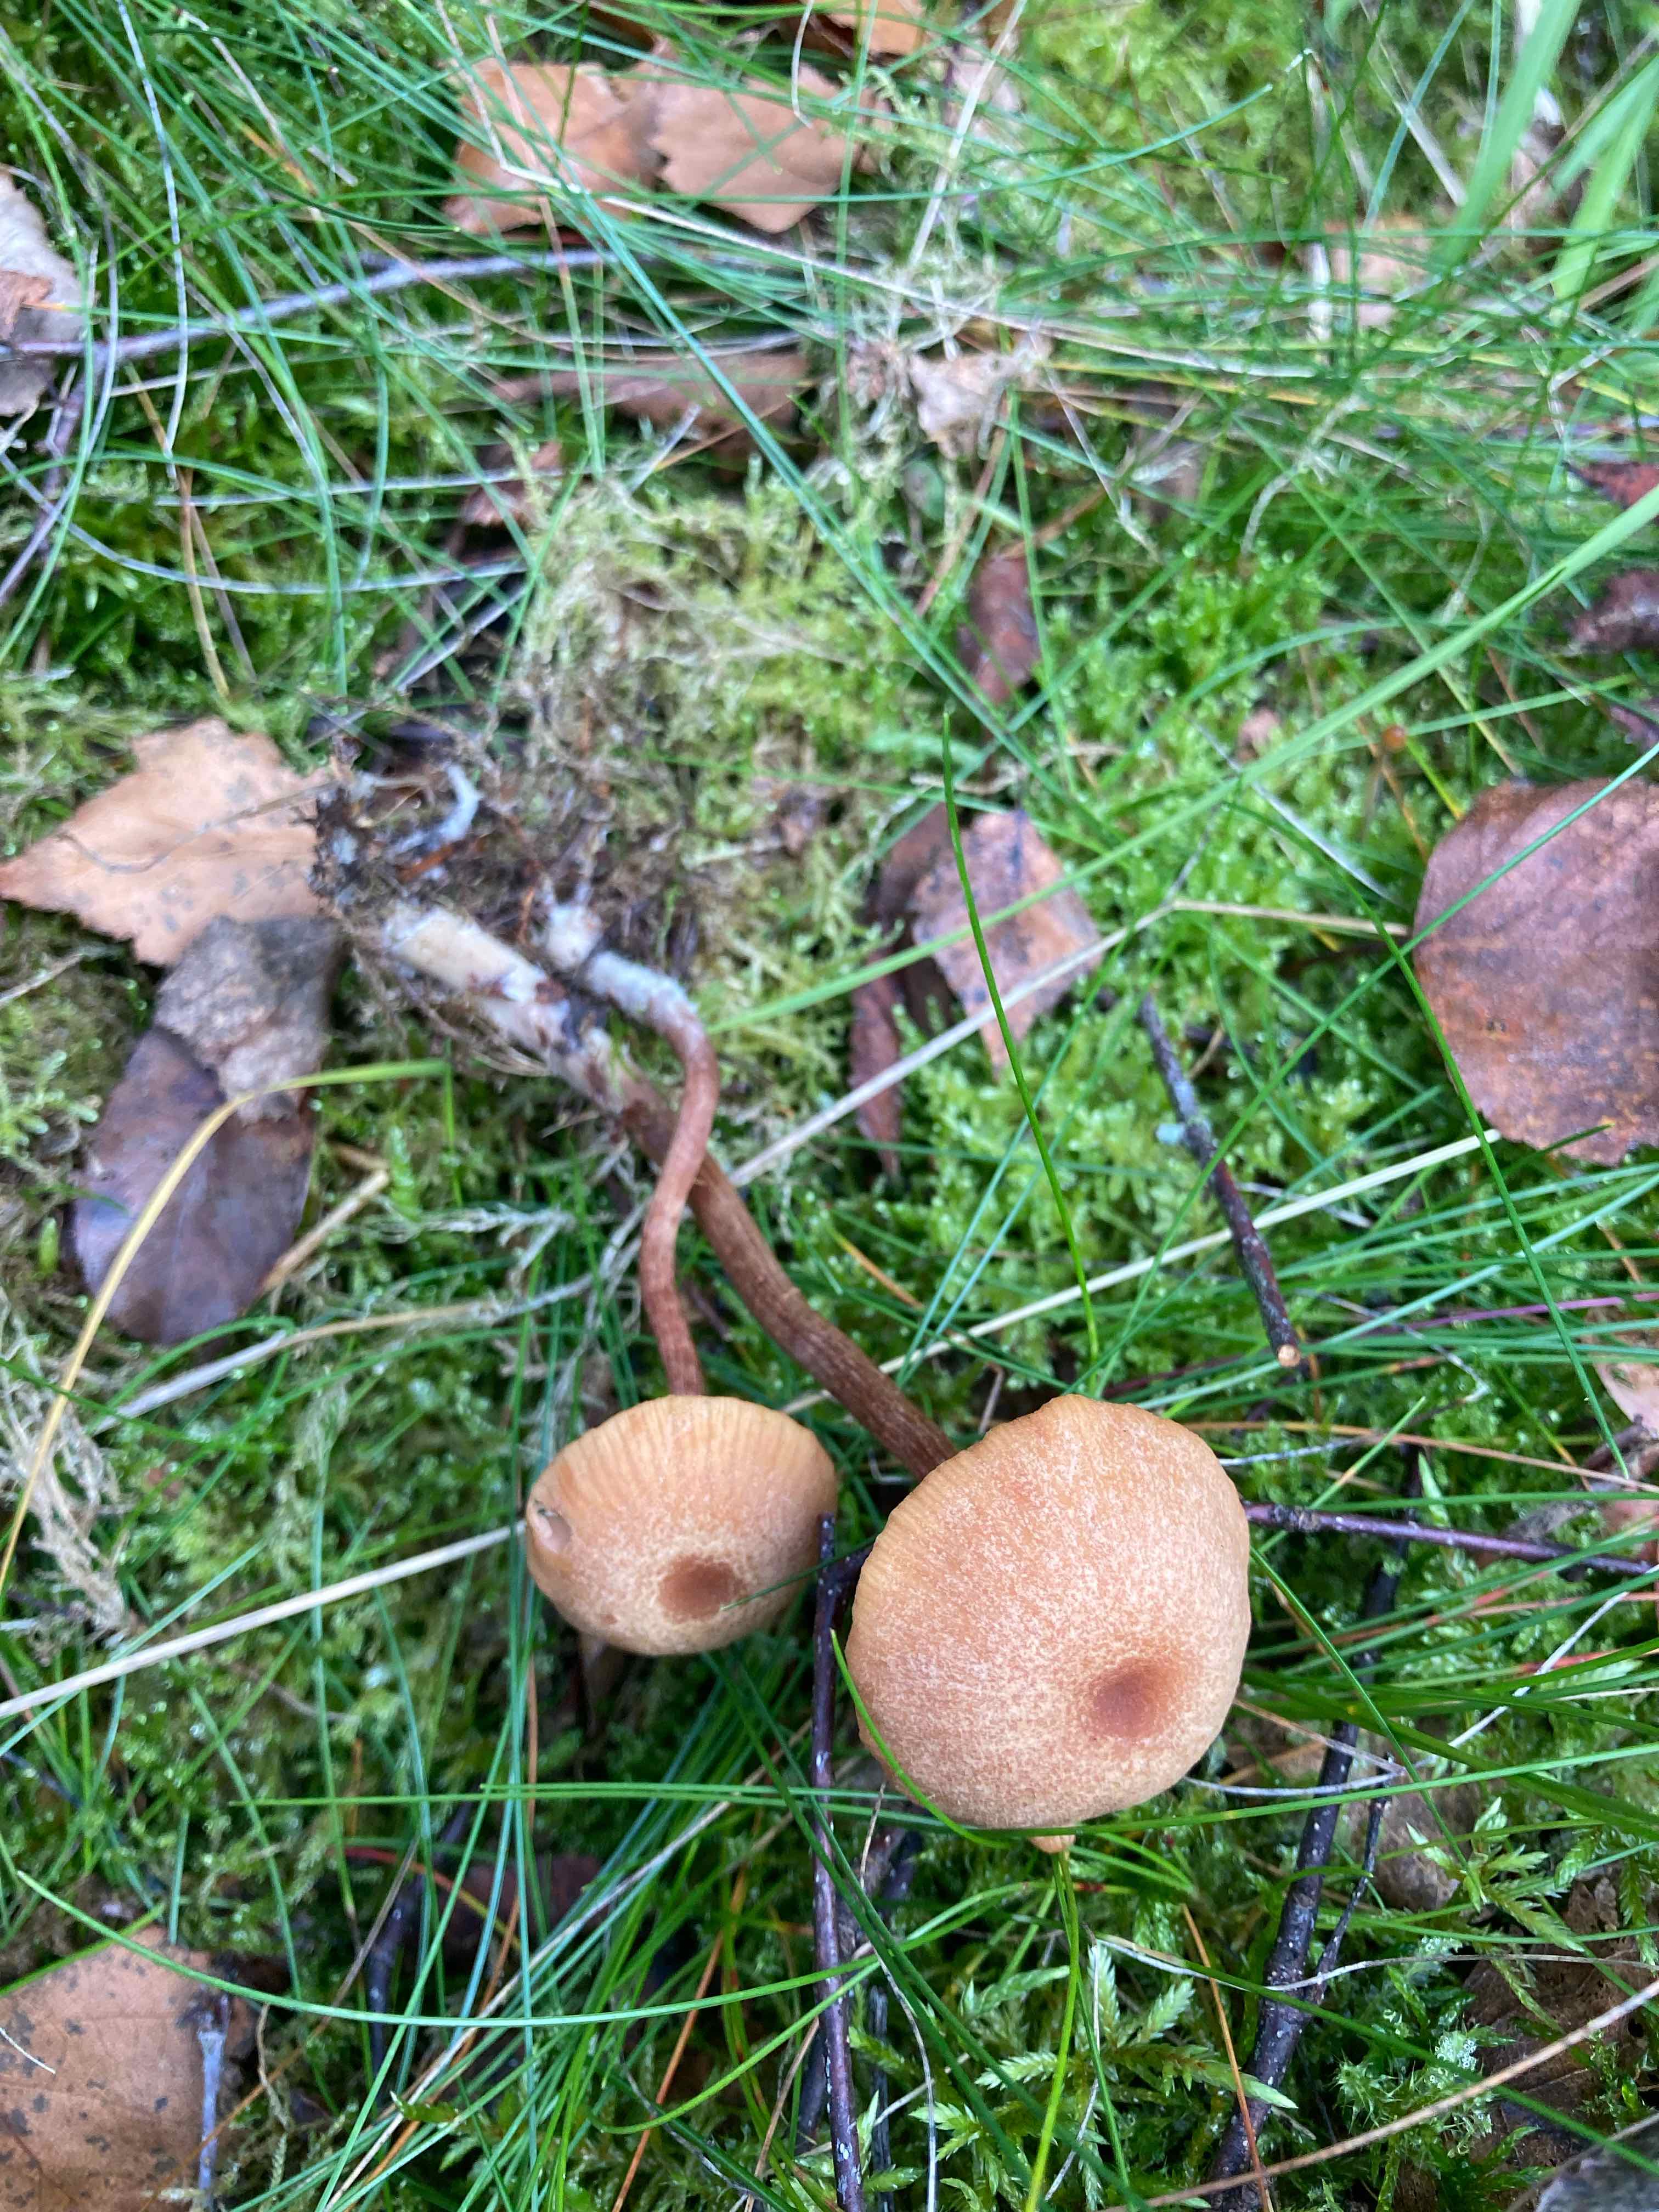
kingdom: Fungi
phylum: Basidiomycota
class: Agaricomycetes
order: Agaricales
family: Hydnangiaceae
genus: Laccaria
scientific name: Laccaria proxima
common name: stor ametysthat
